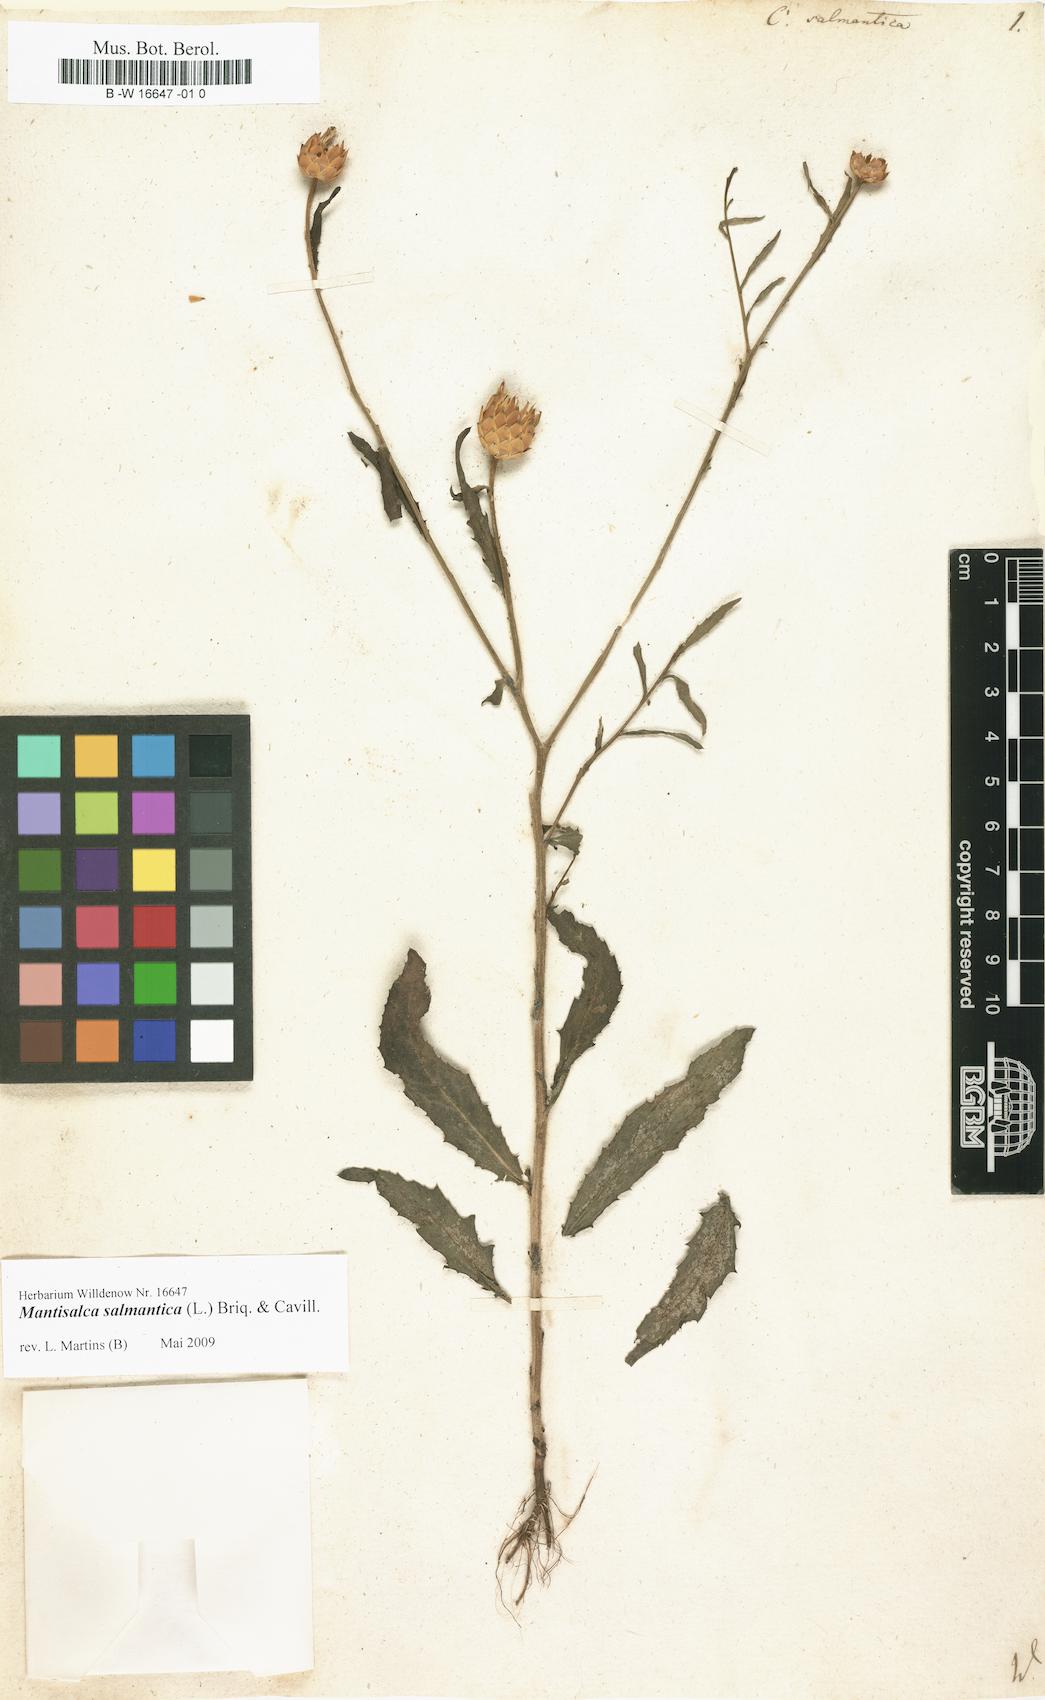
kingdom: Plantae
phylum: Tracheophyta
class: Magnoliopsida
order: Asterales
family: Asteraceae
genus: Mantisalca
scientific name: Mantisalca salmantica
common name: Dagger flower
